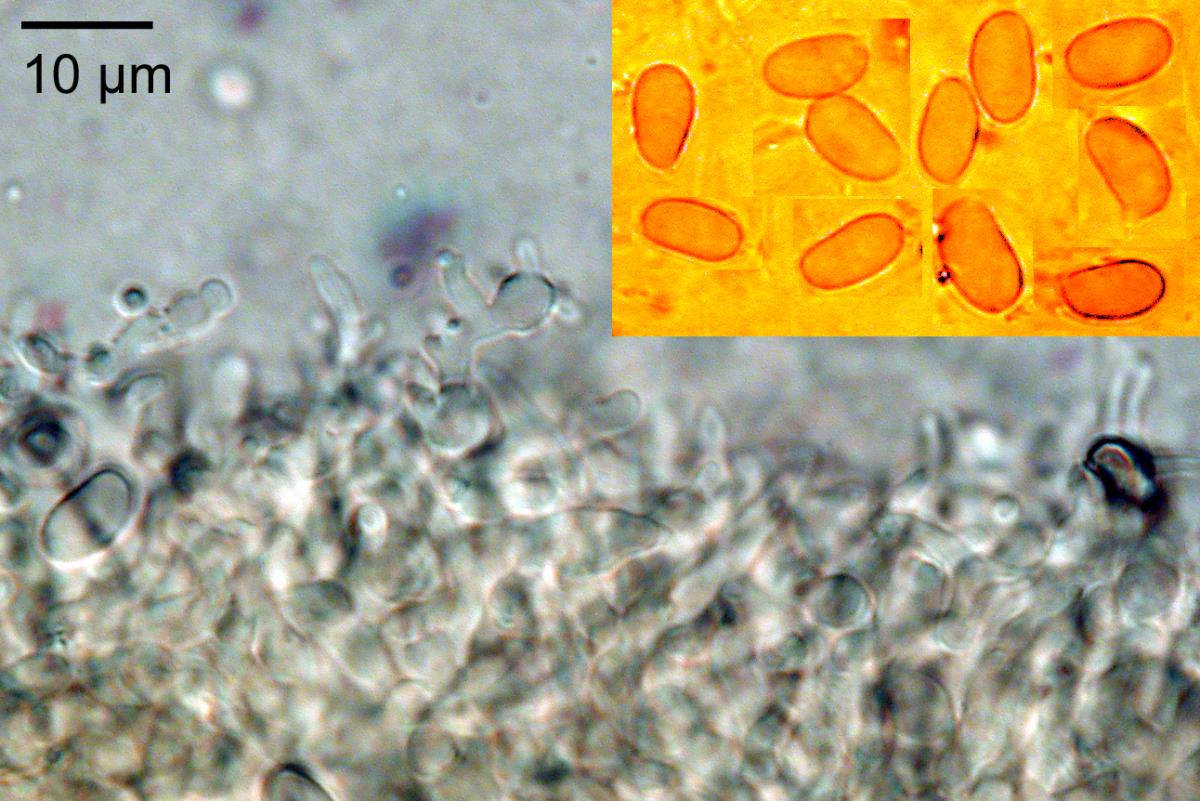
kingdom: Fungi
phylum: Basidiomycota
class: Agaricomycetes
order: Agaricales
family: Mycenaceae
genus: Heimiomyces
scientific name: Heimiomyces velutipes
